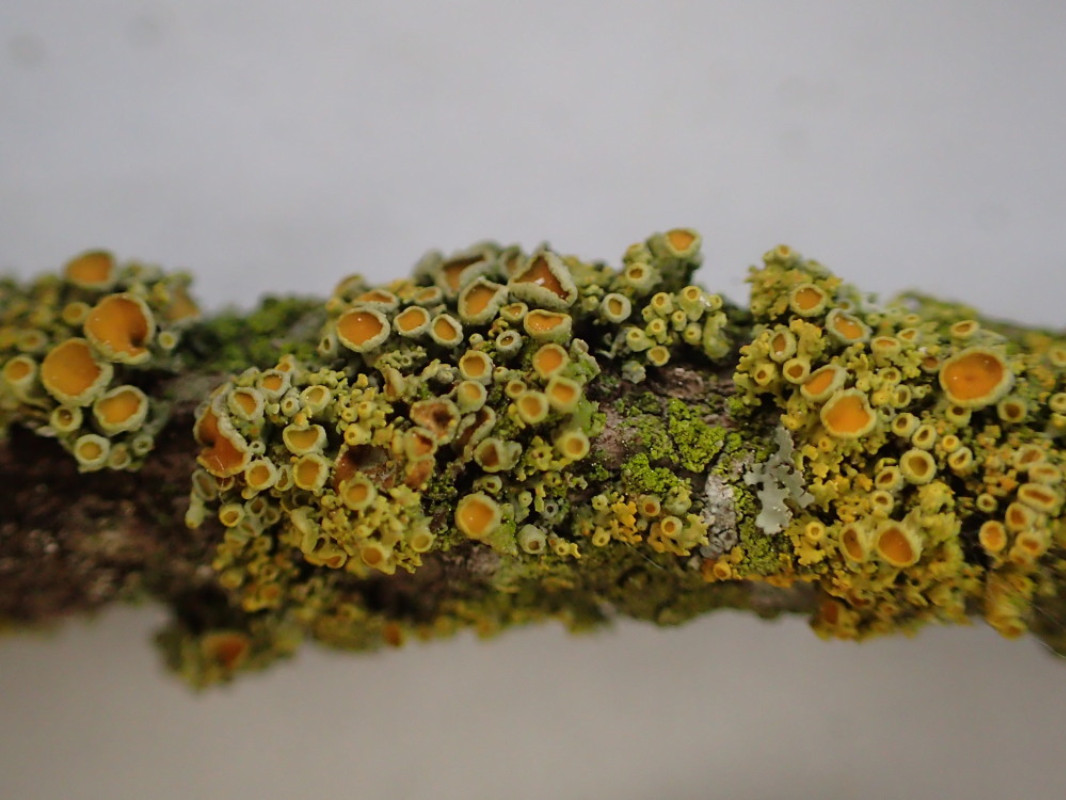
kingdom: Fungi
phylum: Ascomycota
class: Lecanoromycetes
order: Teloschistales
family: Teloschistaceae
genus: Polycauliona
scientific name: Polycauliona polycarpa
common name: mangefrugtet orangelav
